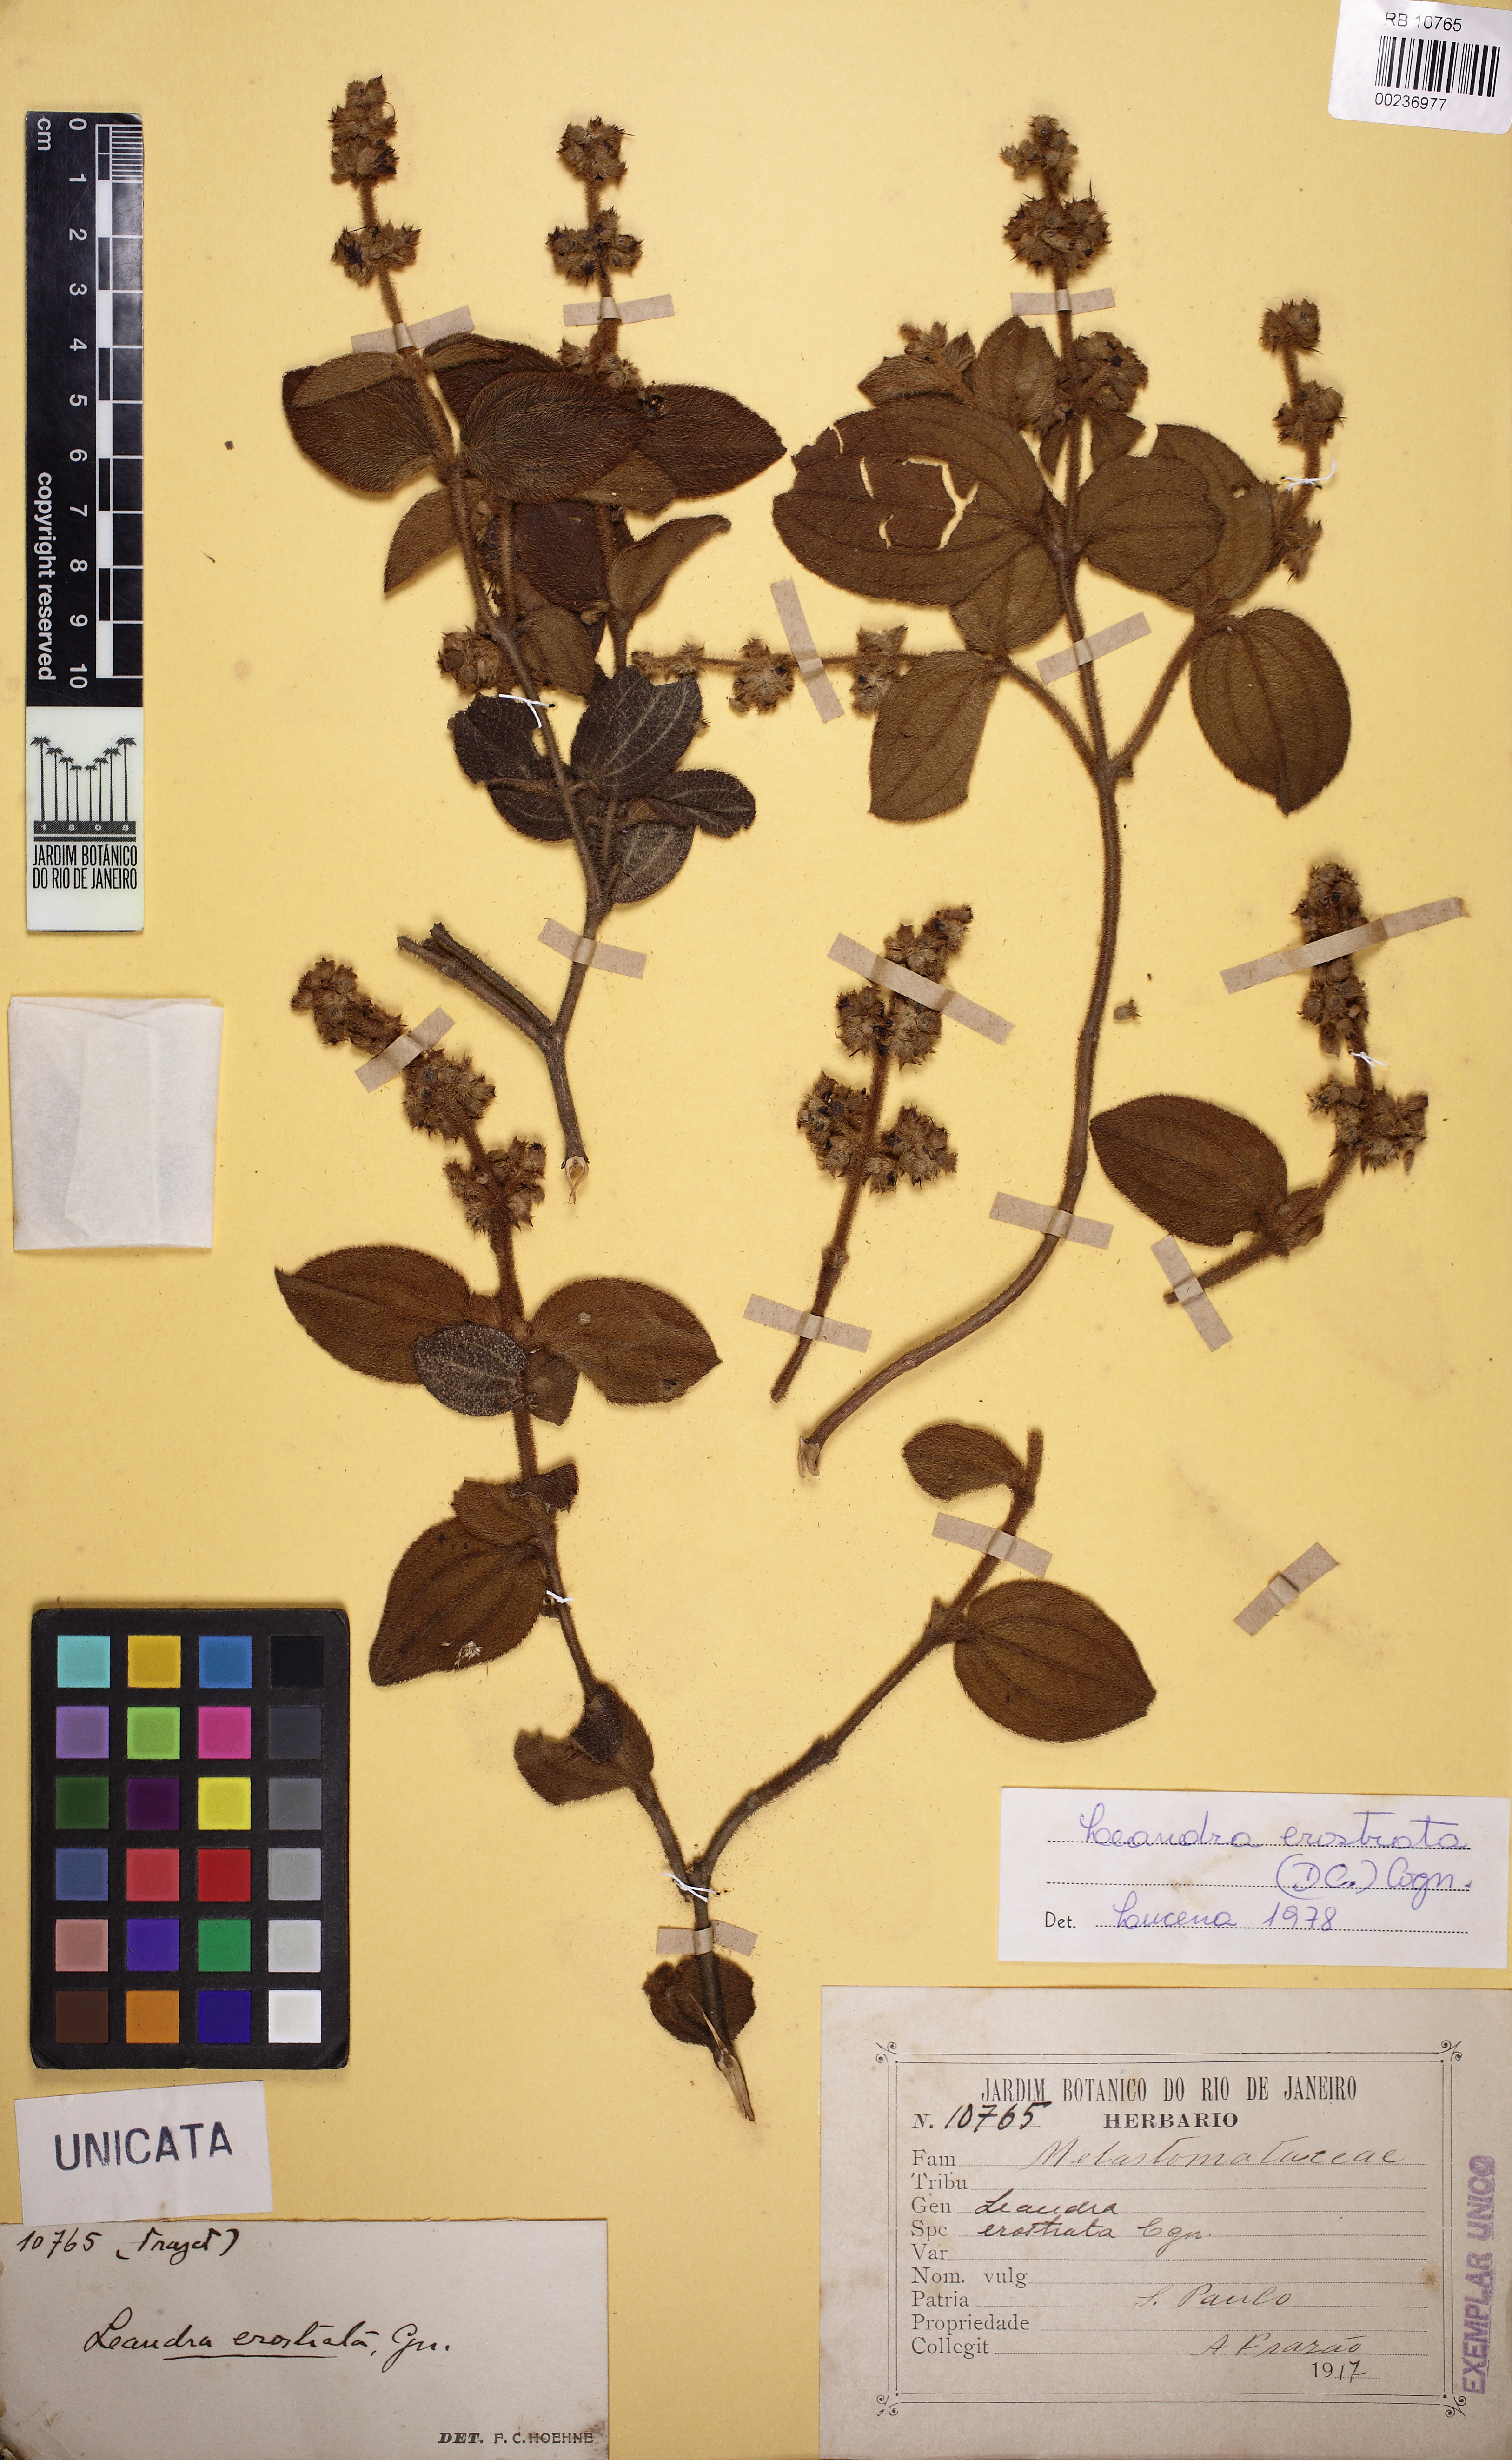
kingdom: Plantae
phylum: Tracheophyta
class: Magnoliopsida
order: Myrtales
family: Melastomataceae
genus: Miconia
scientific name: Miconia erostrata
